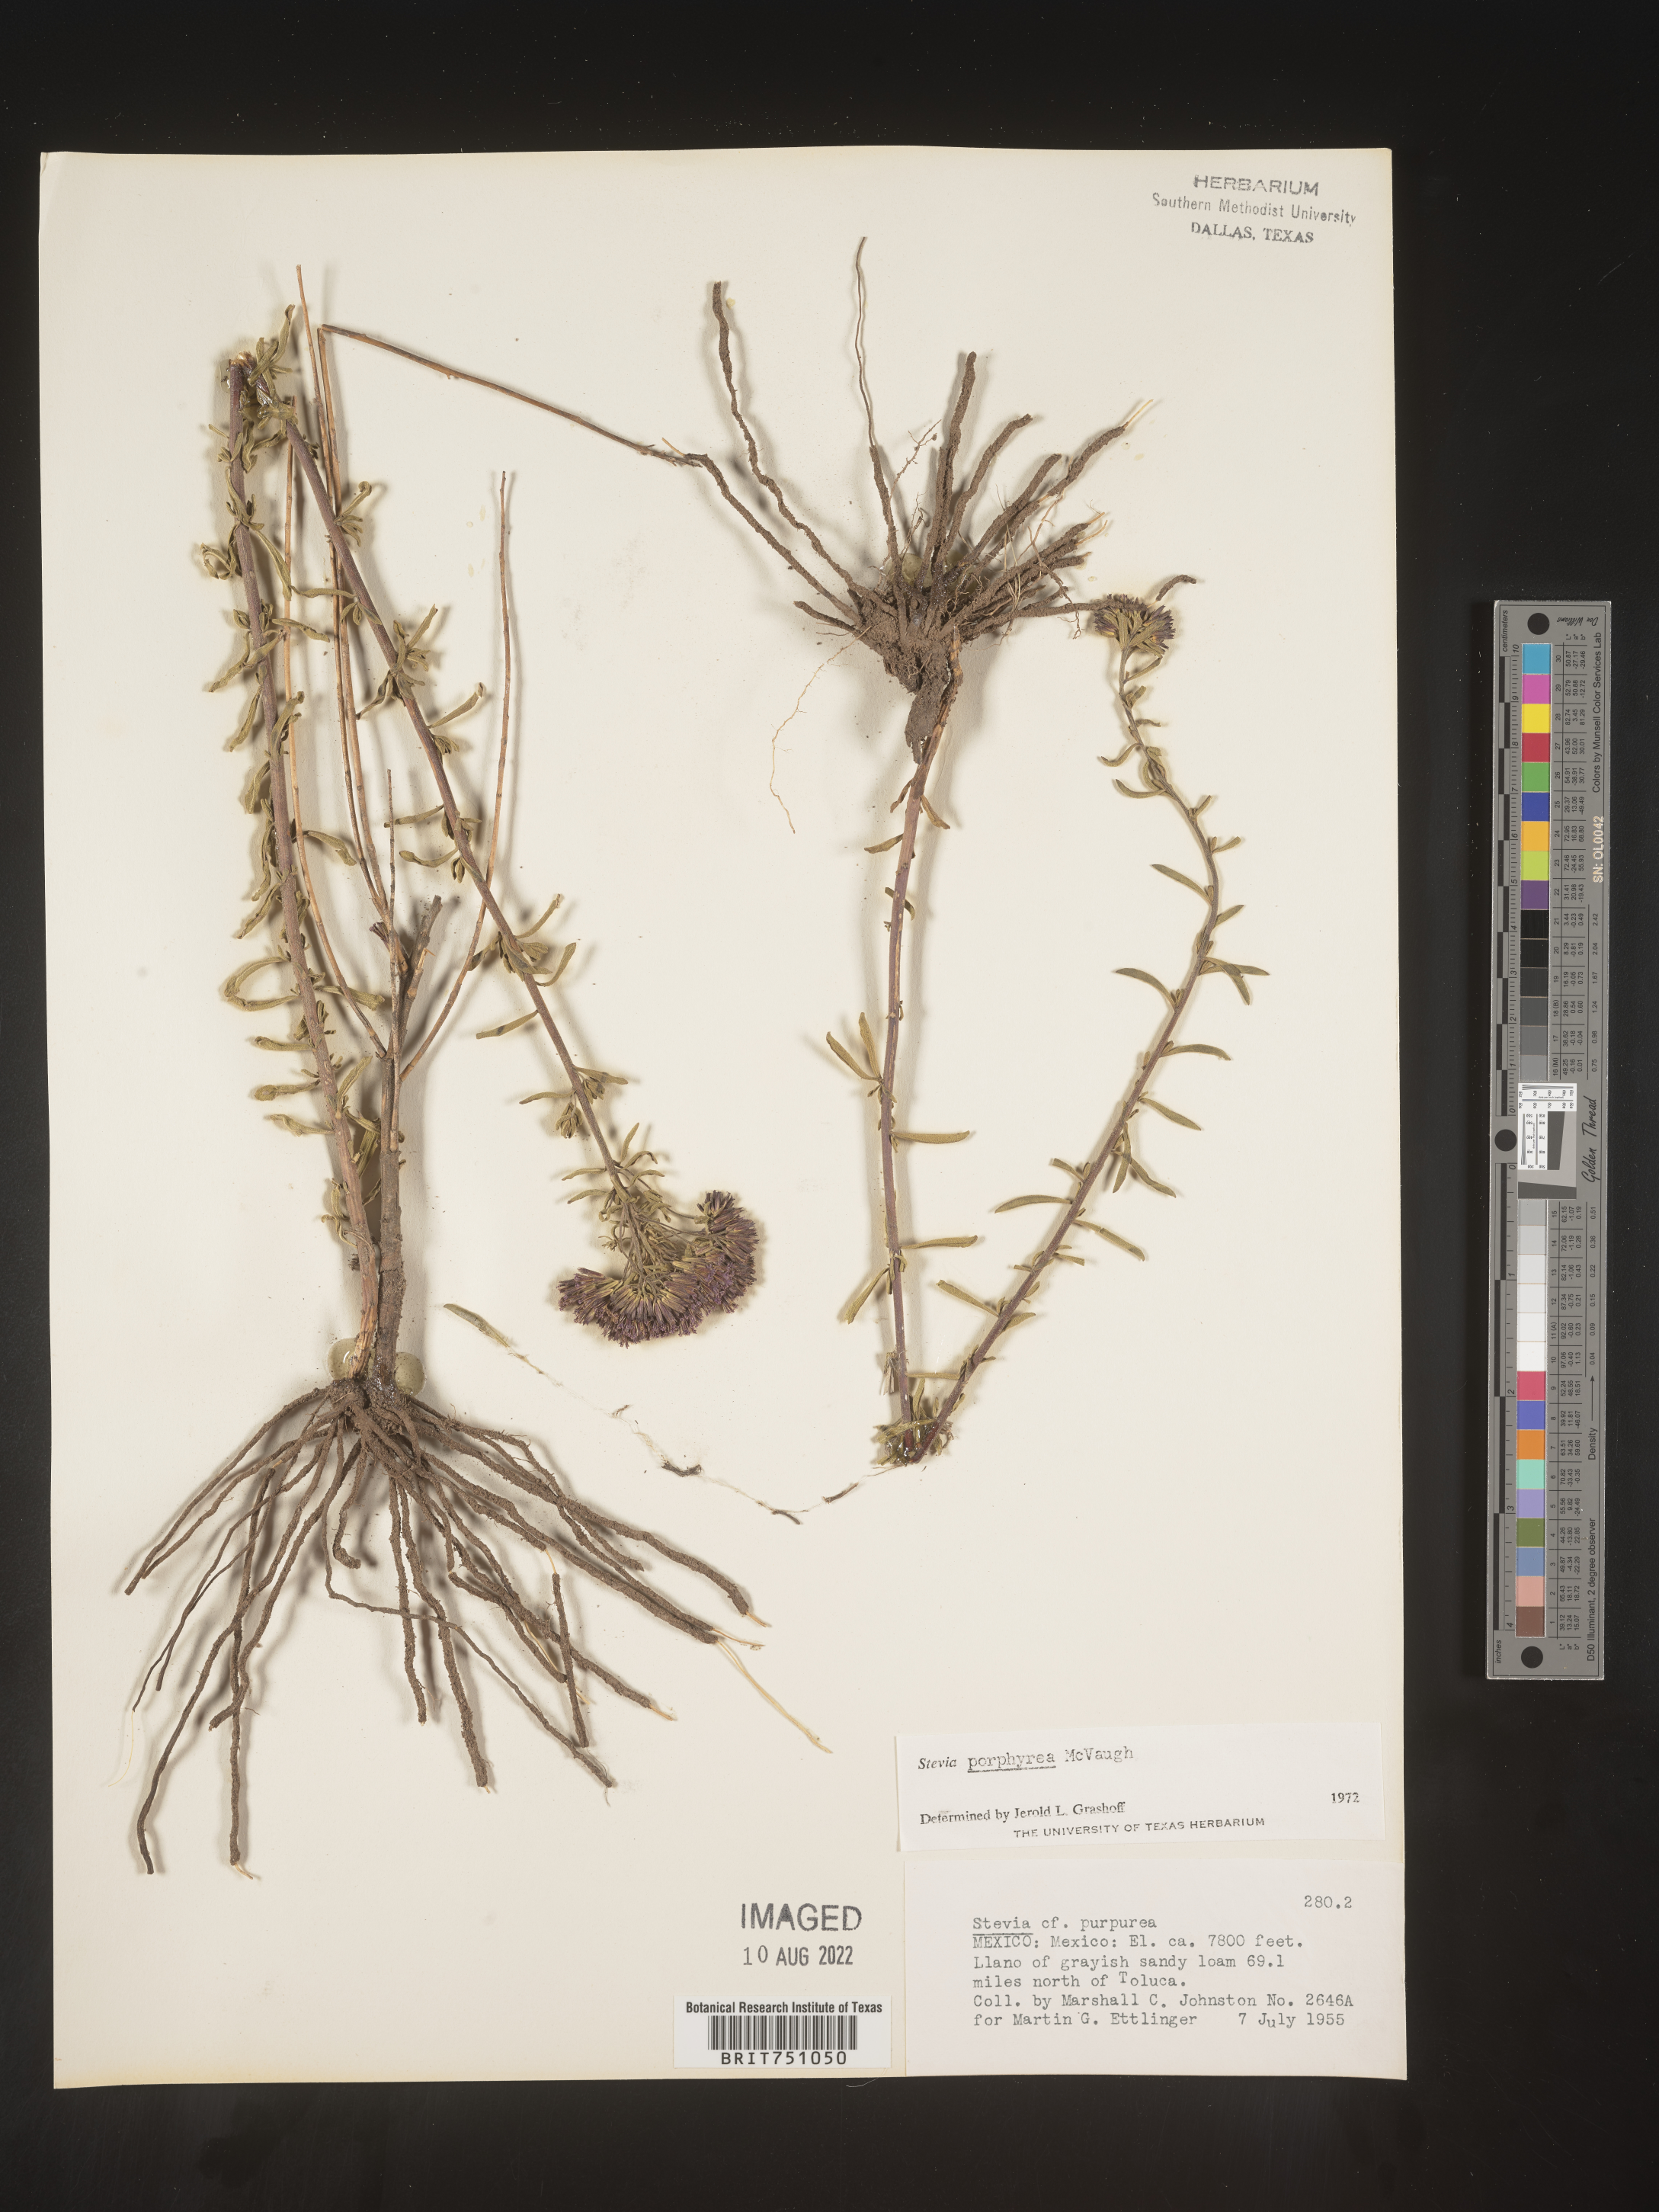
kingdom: Plantae
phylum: Tracheophyta
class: Magnoliopsida
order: Asterales
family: Asteraceae
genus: Stevia
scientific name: Stevia porphyrea
